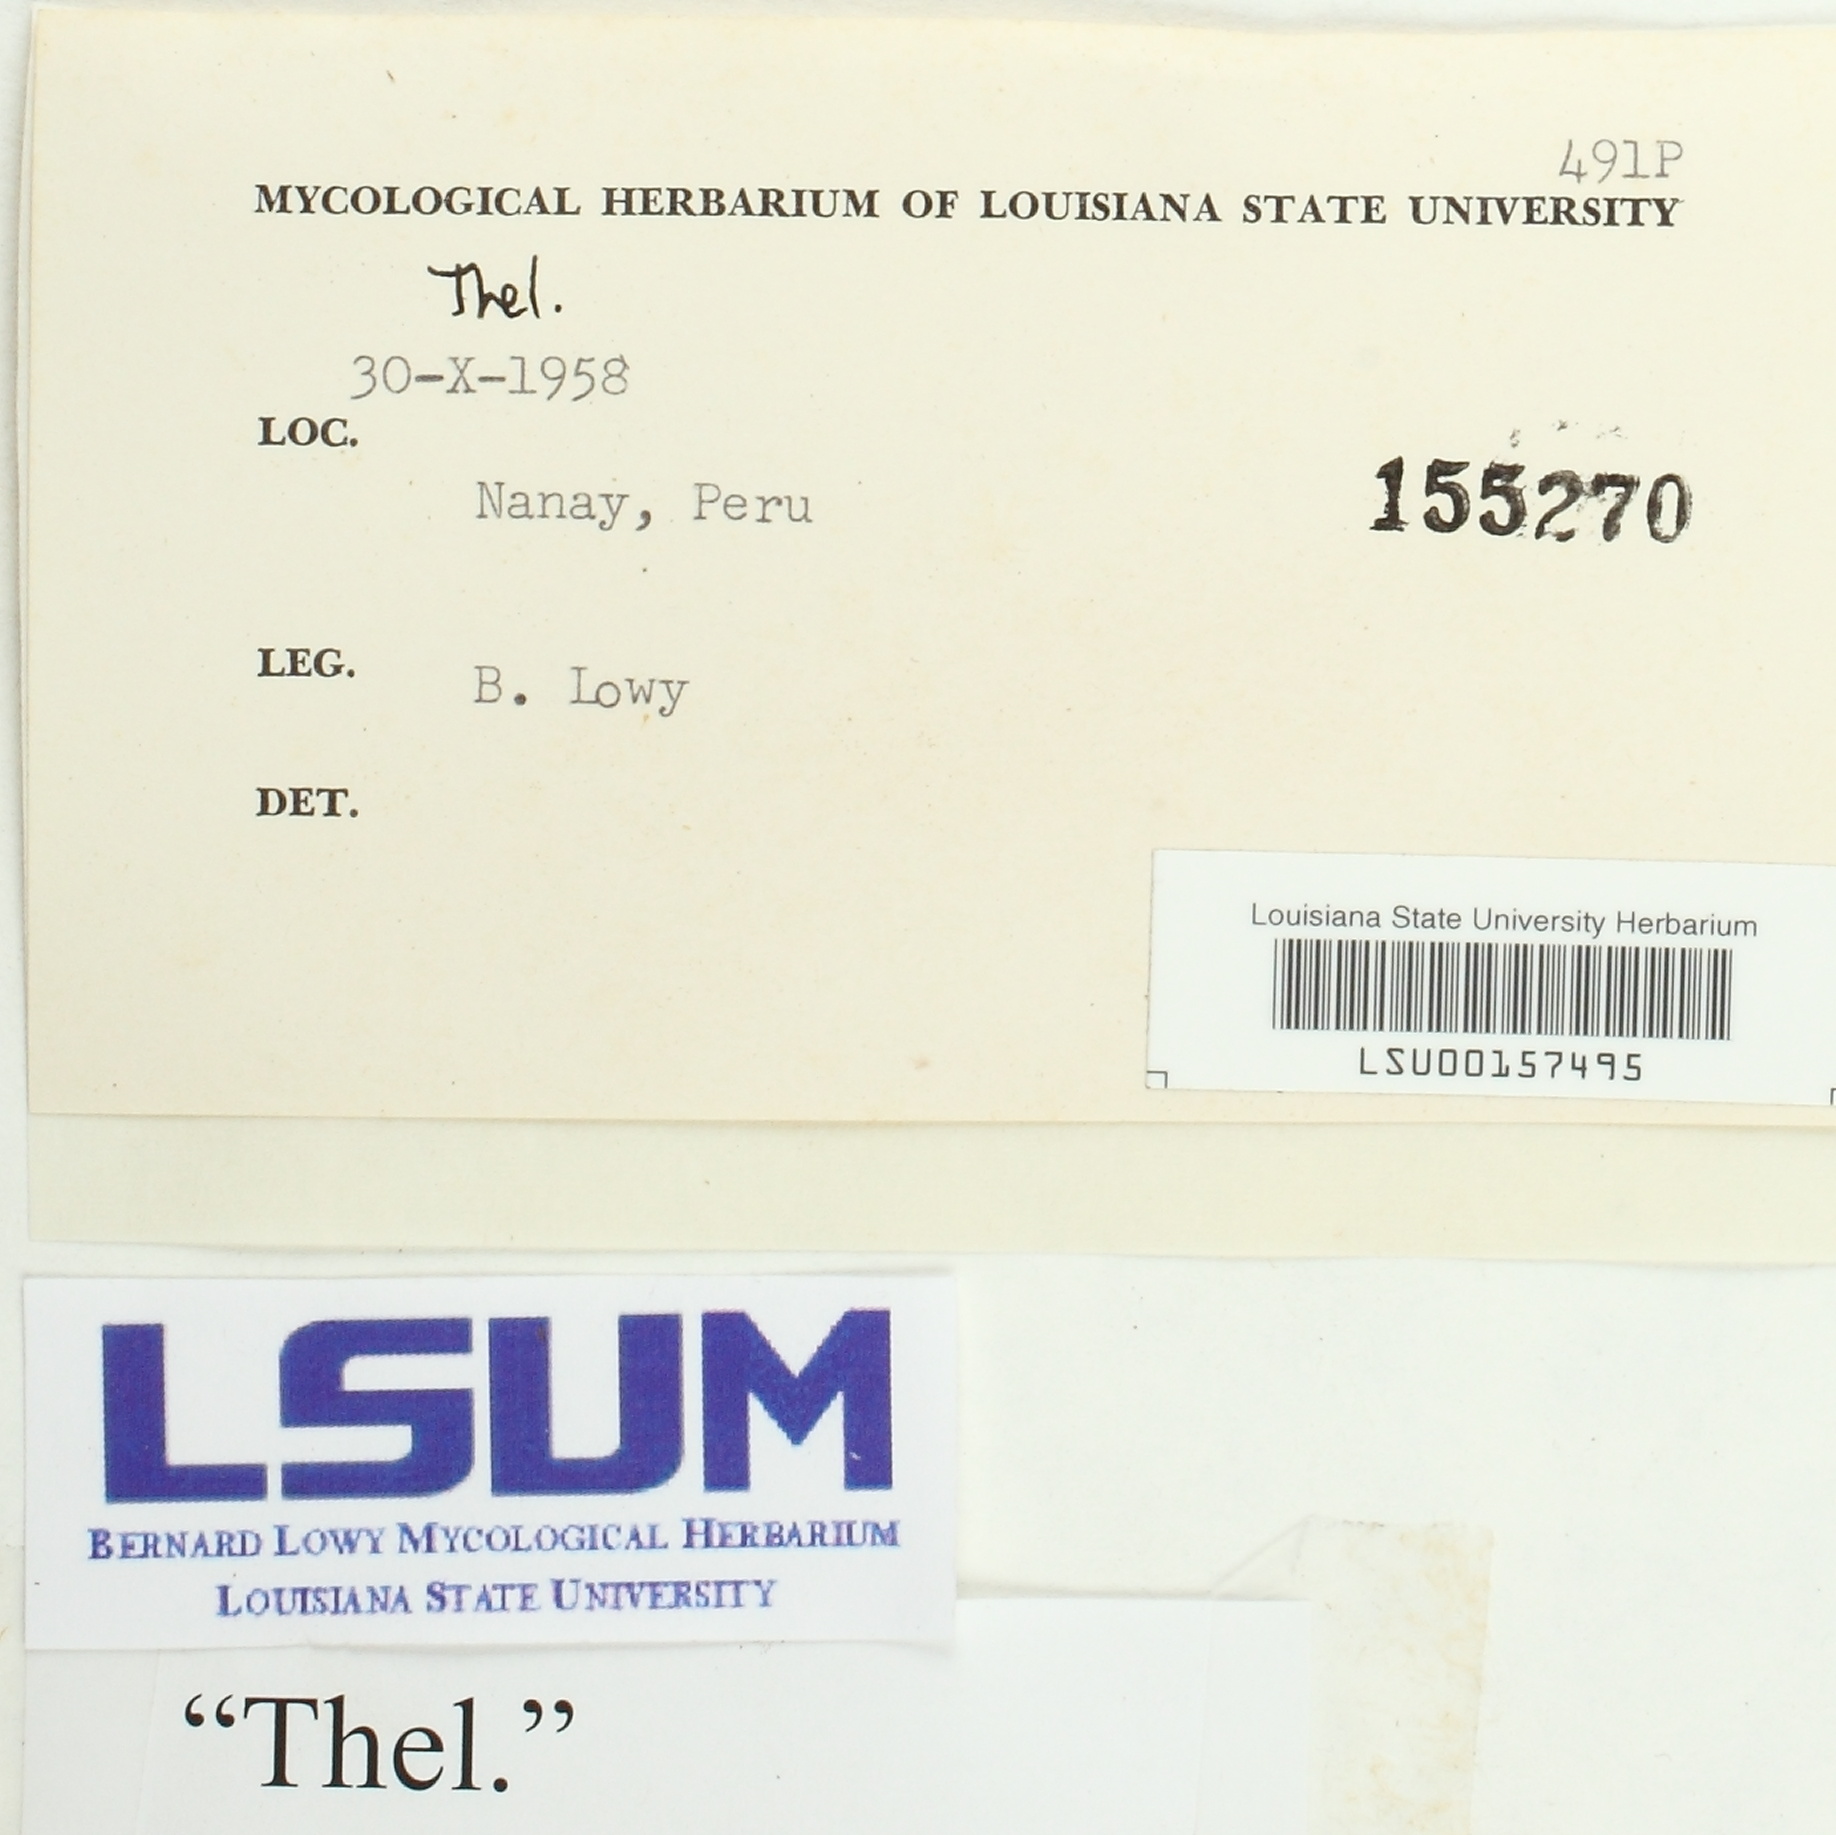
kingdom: Fungi
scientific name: Fungi
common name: Fungi
